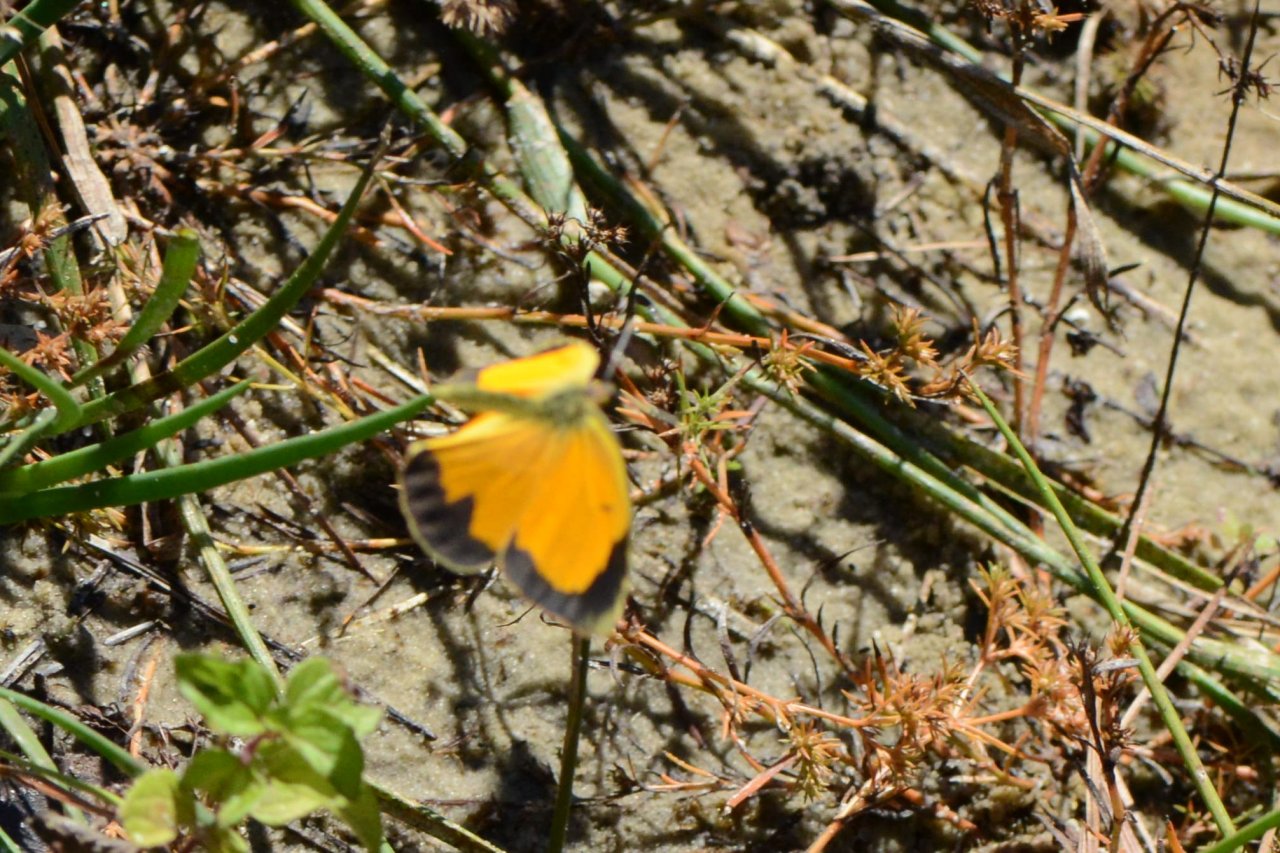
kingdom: Animalia
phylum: Arthropoda
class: Insecta
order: Lepidoptera
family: Pieridae
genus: Abaeis
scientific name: Abaeis nicippe
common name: Sleepy Orange
